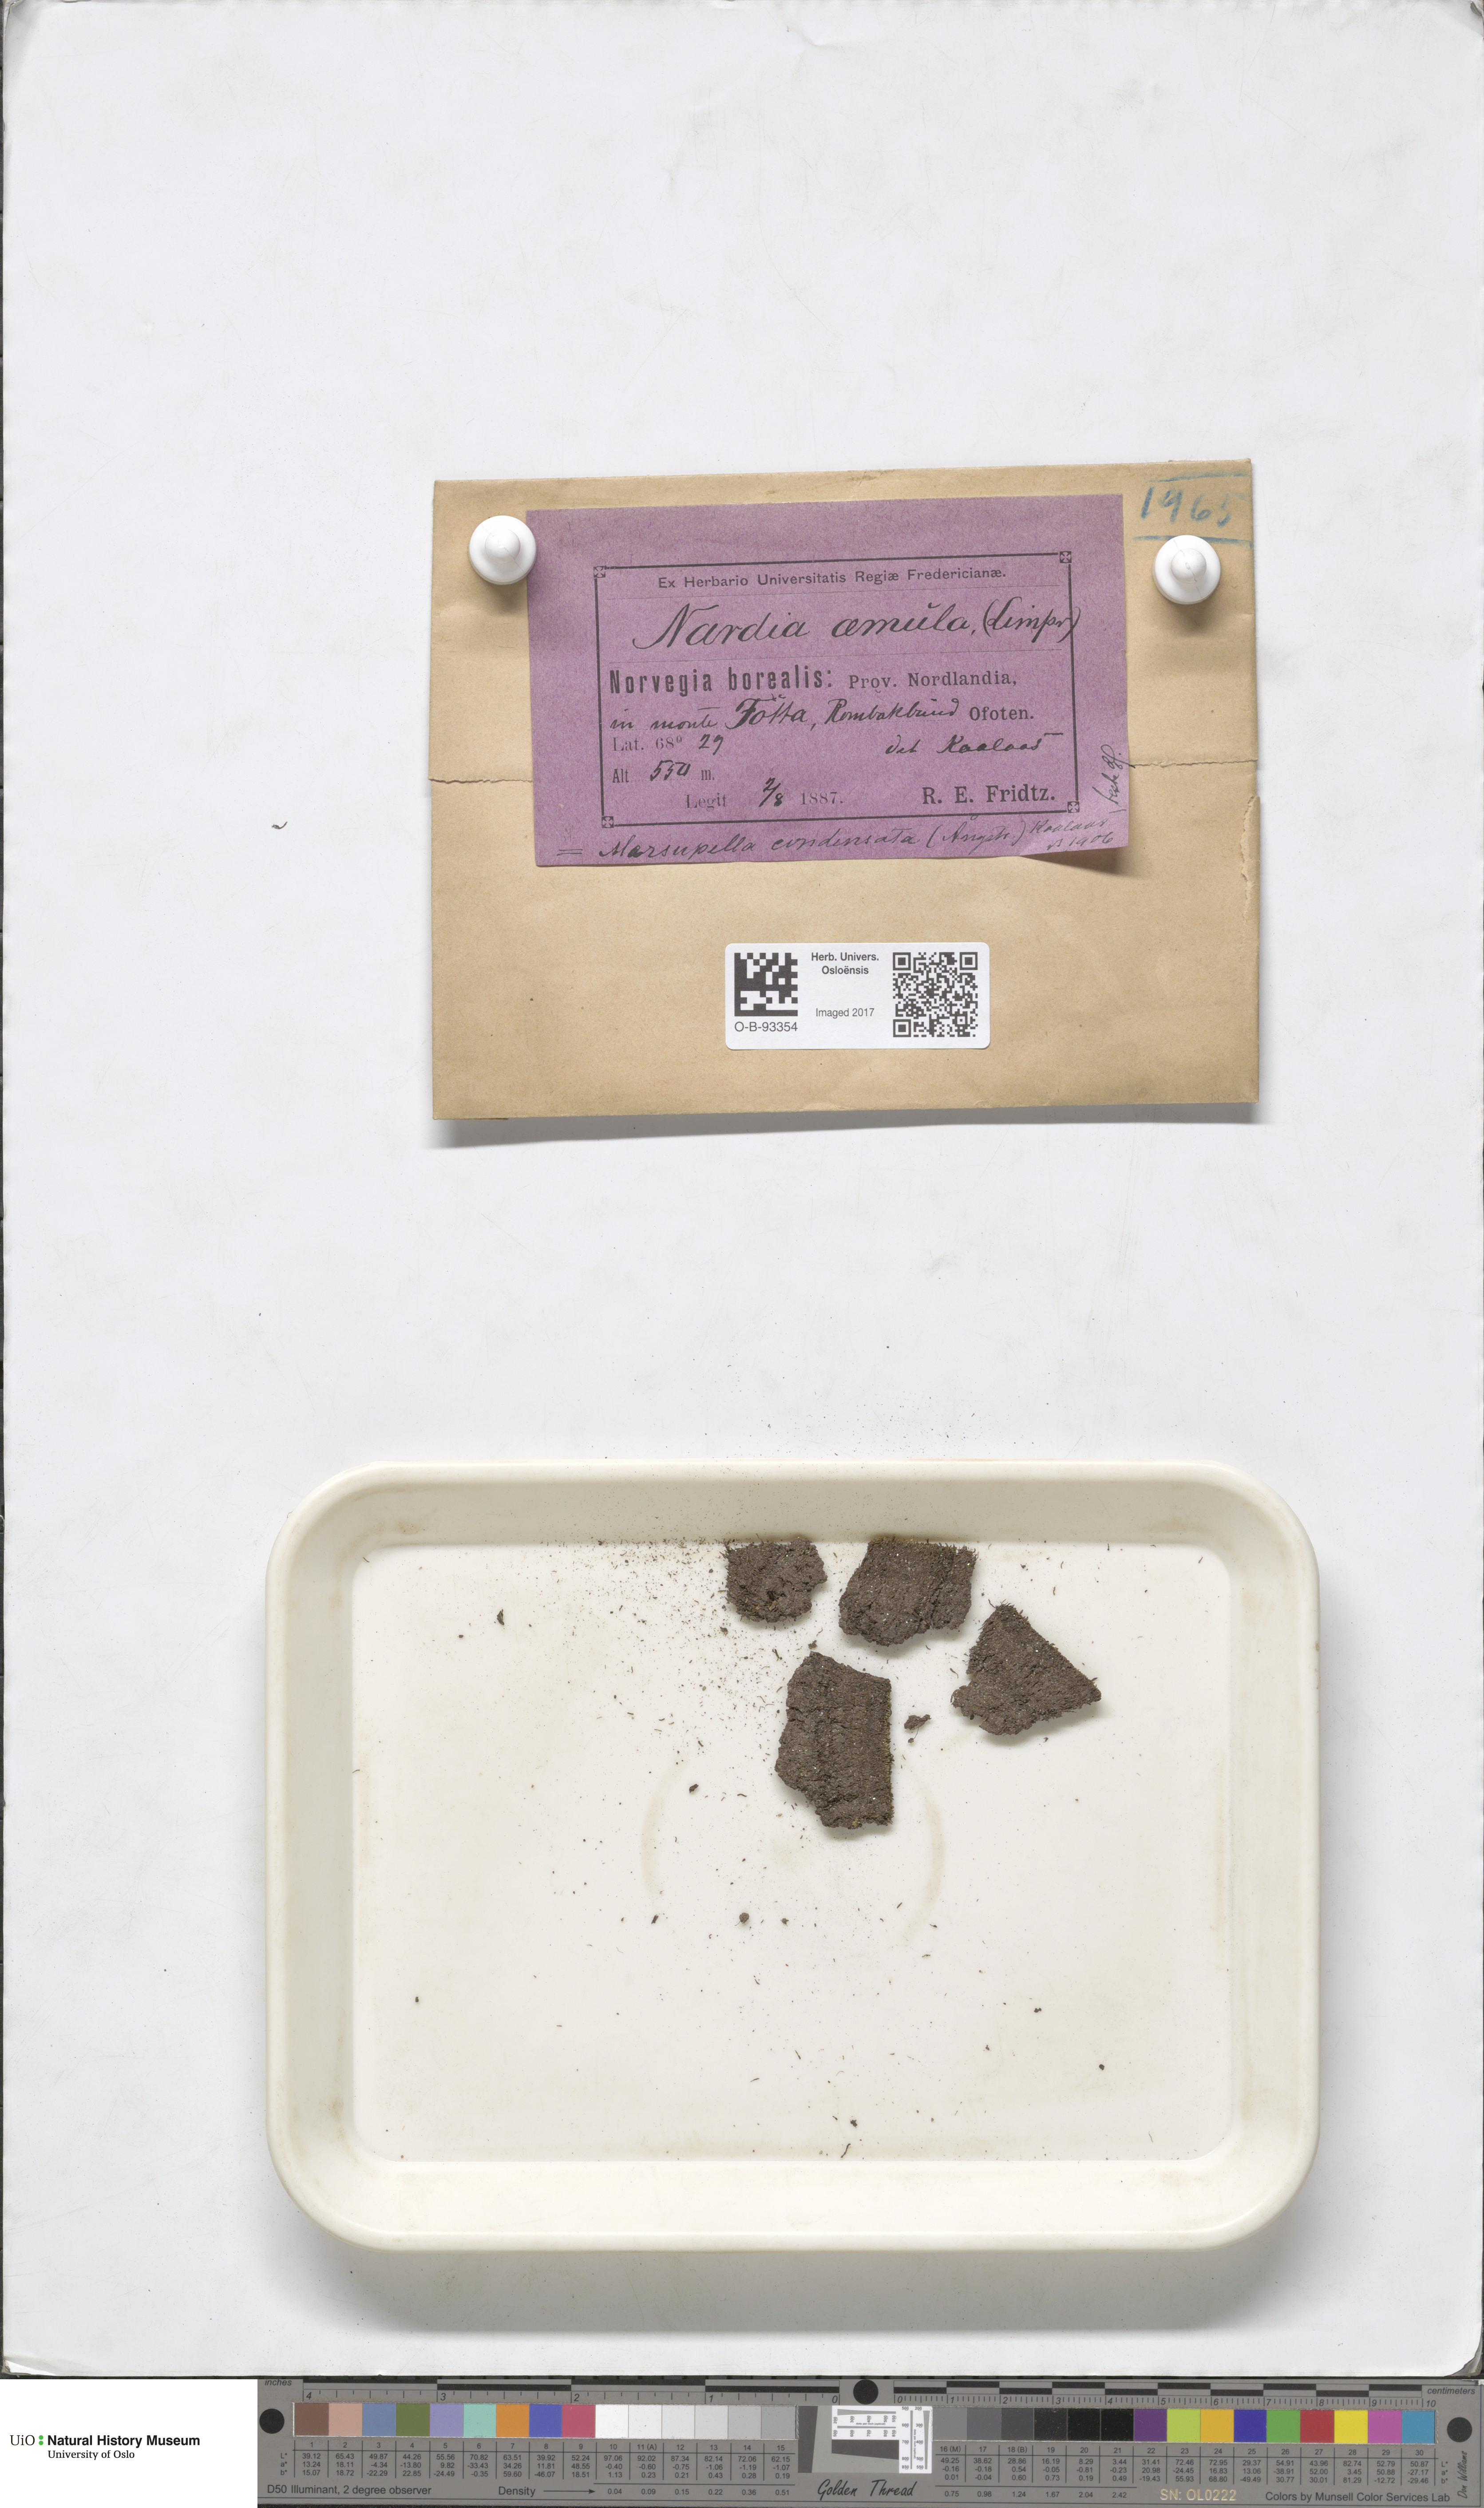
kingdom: Plantae
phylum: Marchantiophyta
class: Jungermanniopsida
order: Jungermanniales
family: Gymnomitriaceae
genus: Gymnomitrion
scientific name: Gymnomitrion brevissimum
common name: Snow rustwort
